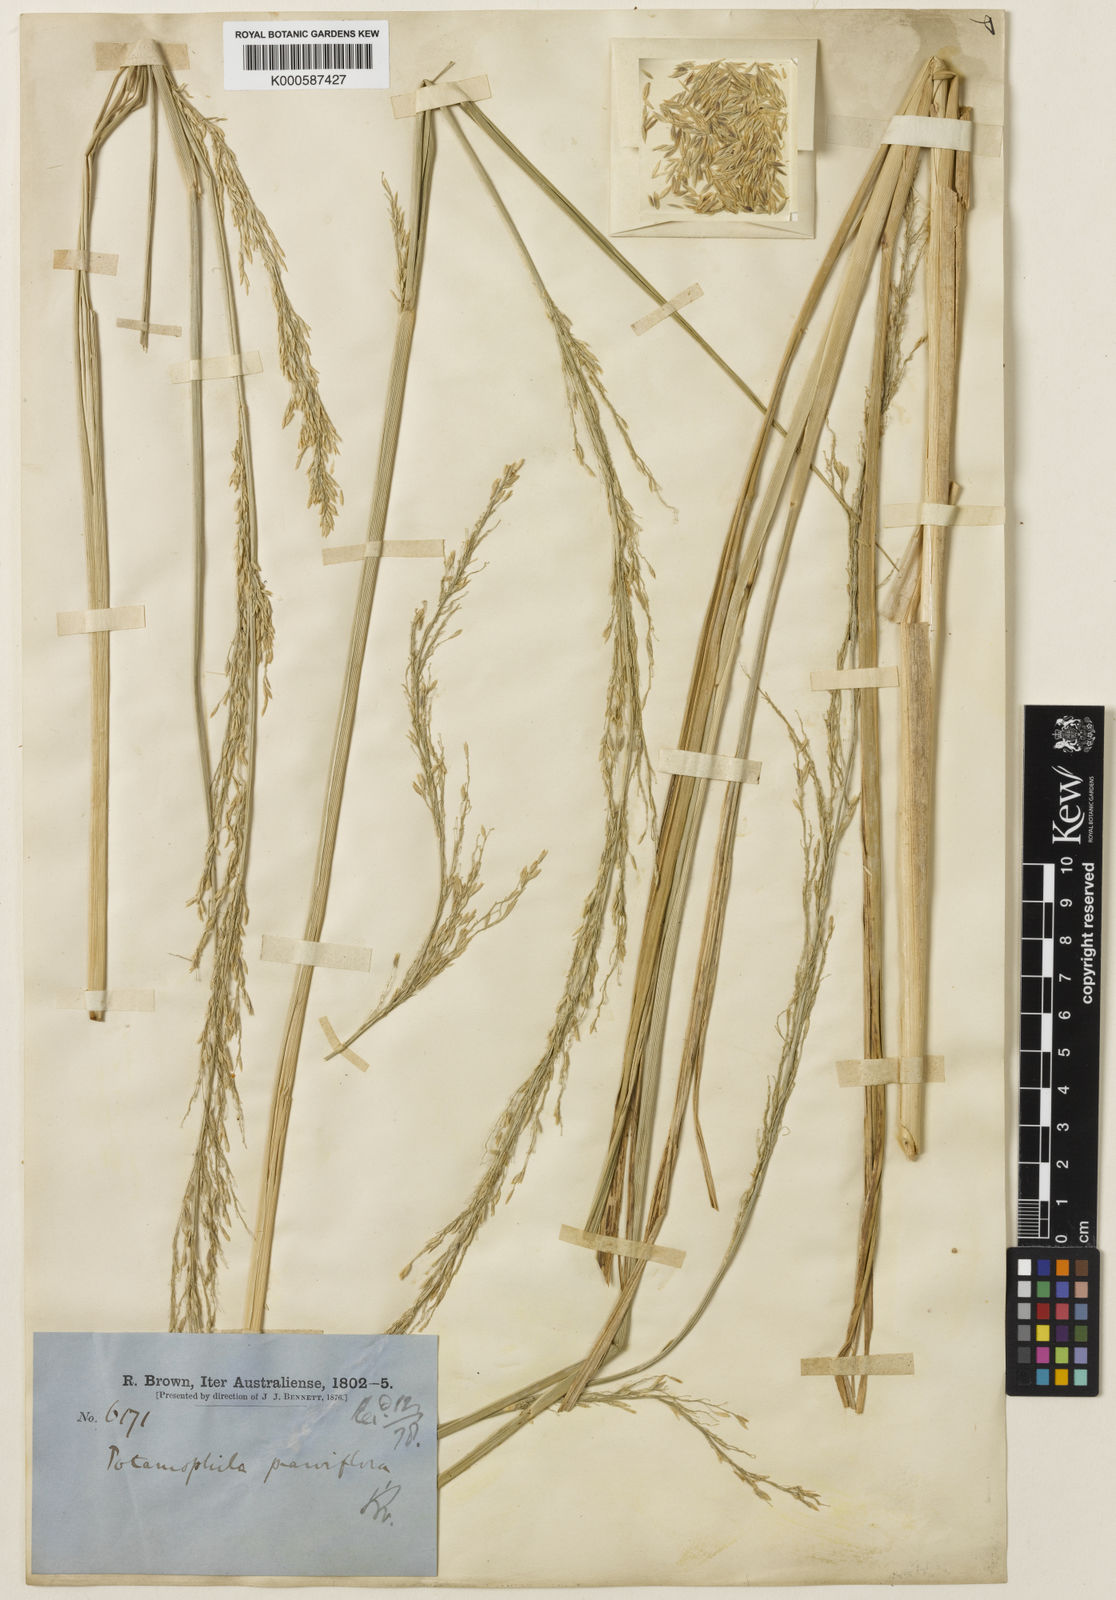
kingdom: Plantae
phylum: Tracheophyta
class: Liliopsida
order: Poales
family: Poaceae
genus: Potamophila
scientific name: Potamophila parviflora
